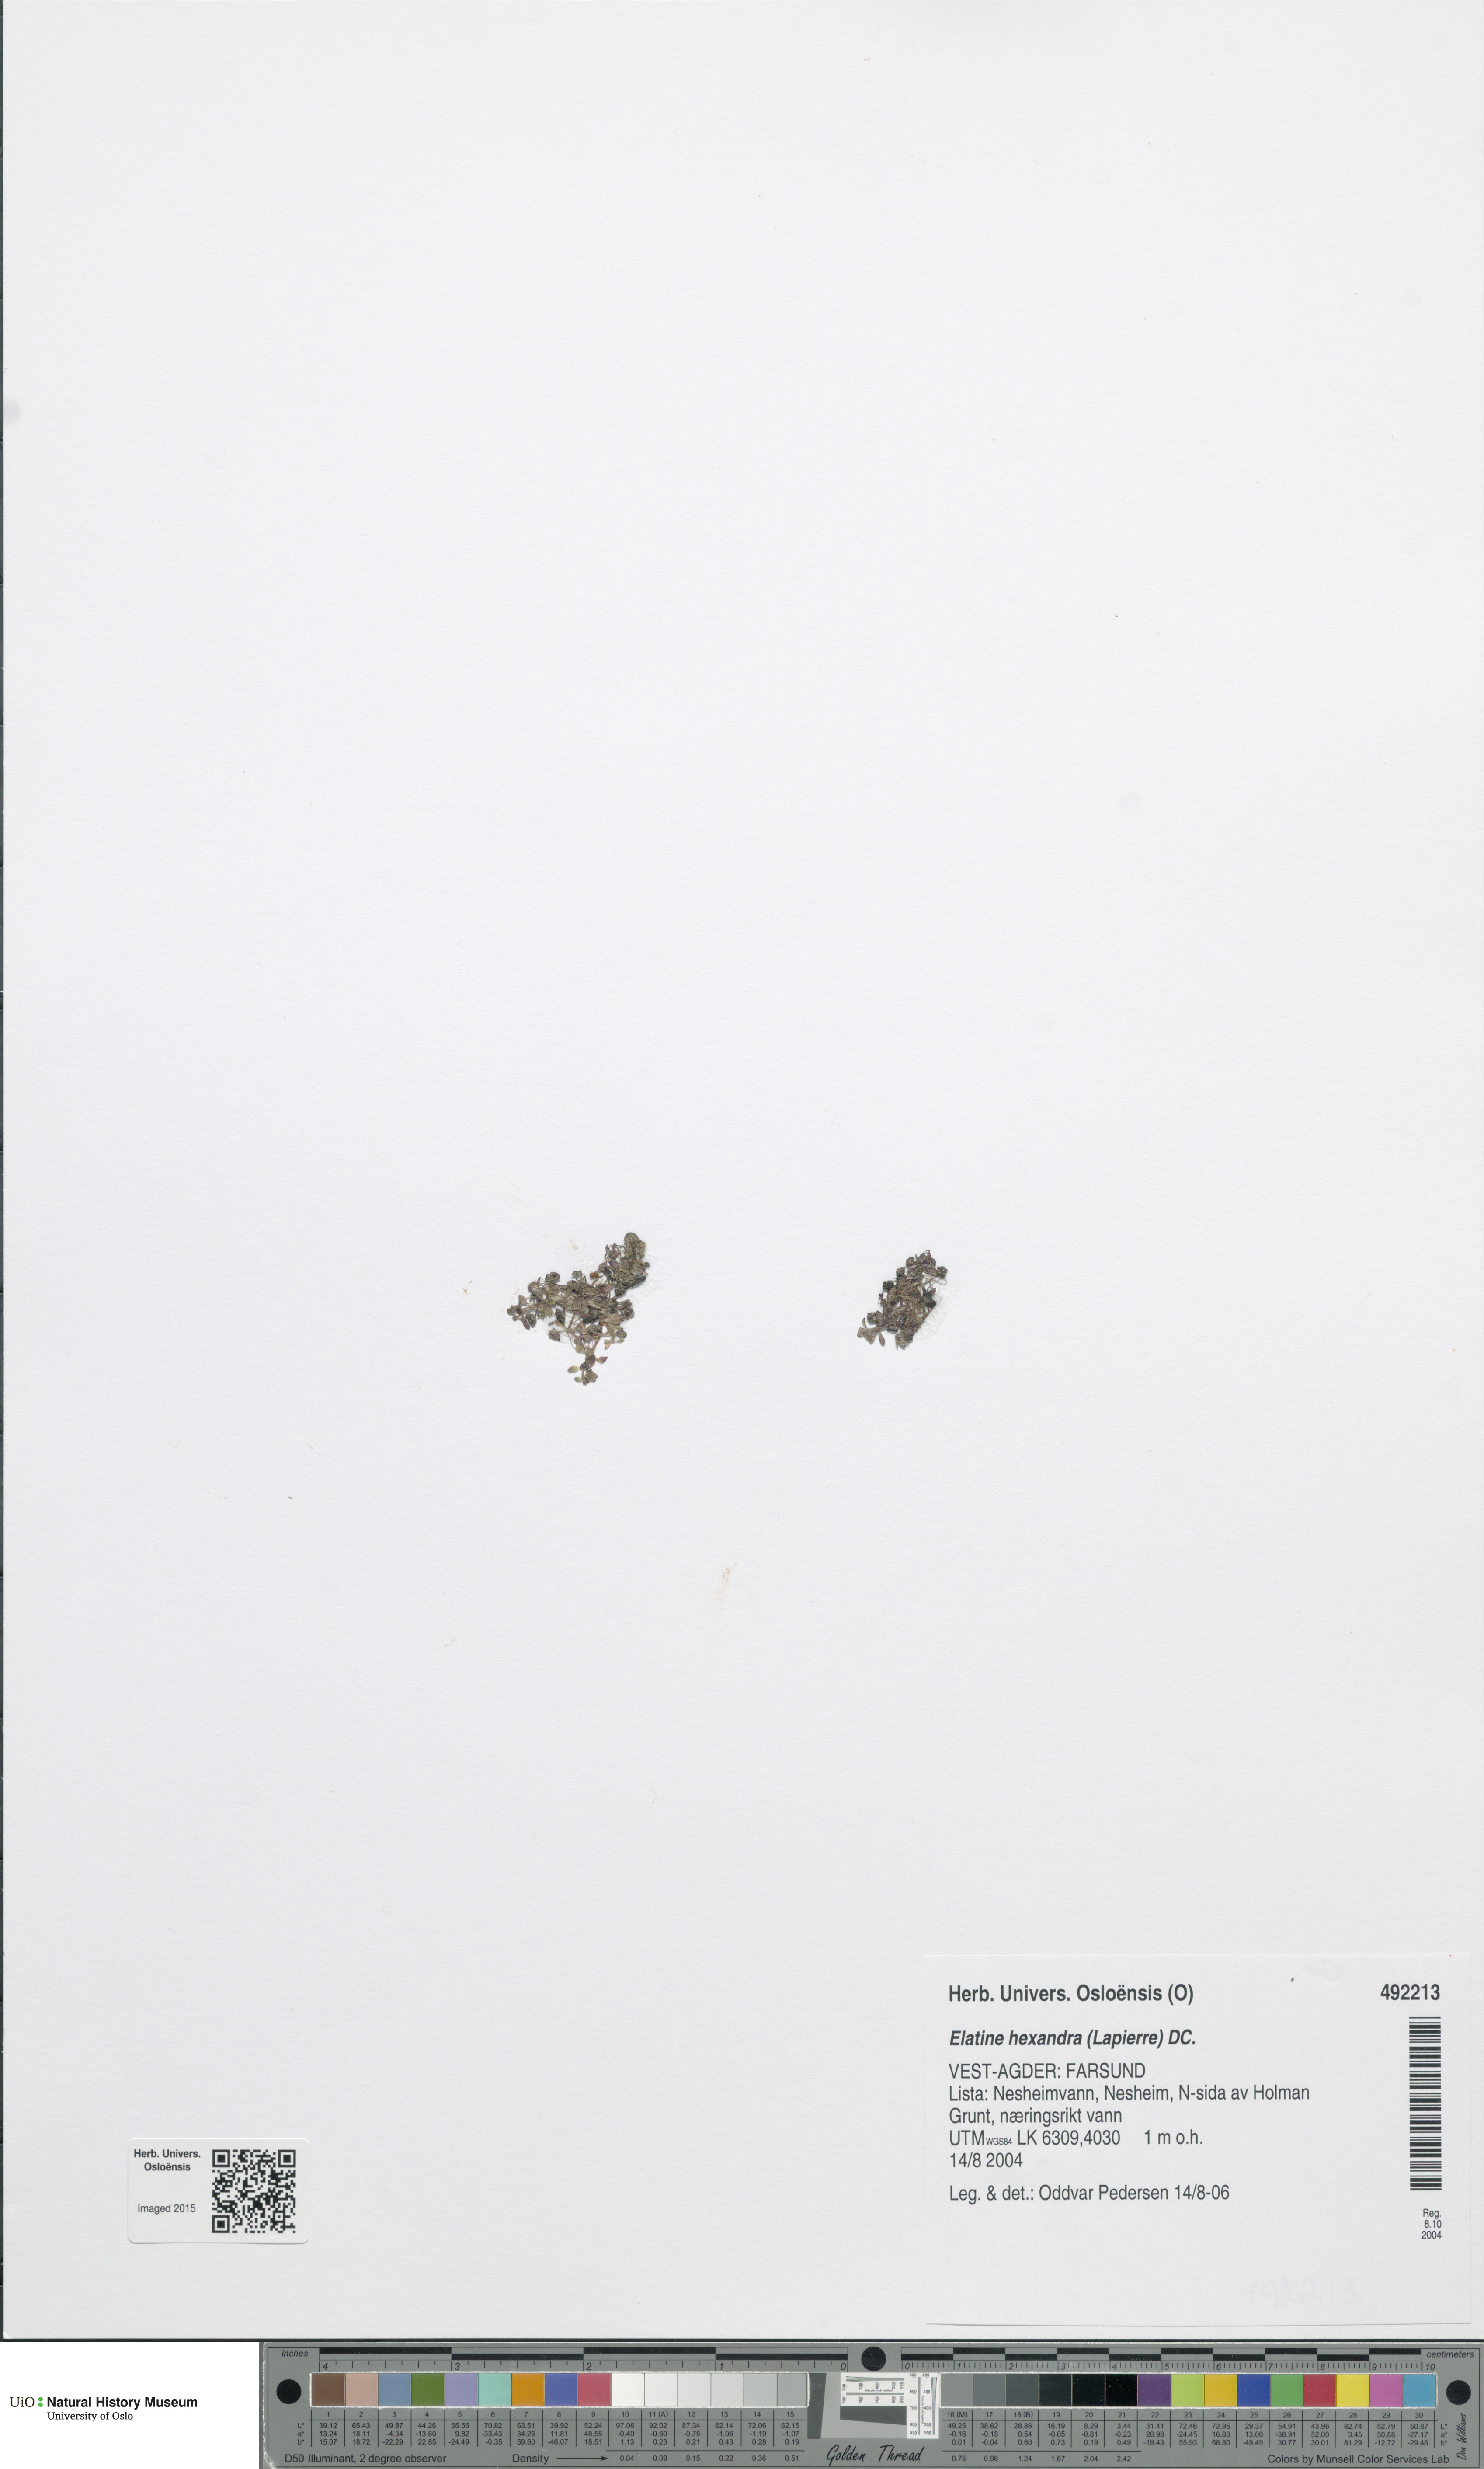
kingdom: Plantae
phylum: Tracheophyta
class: Magnoliopsida
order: Malpighiales
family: Elatinaceae
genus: Elatine
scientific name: Elatine hexandra
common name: Six-stamened waterwort
